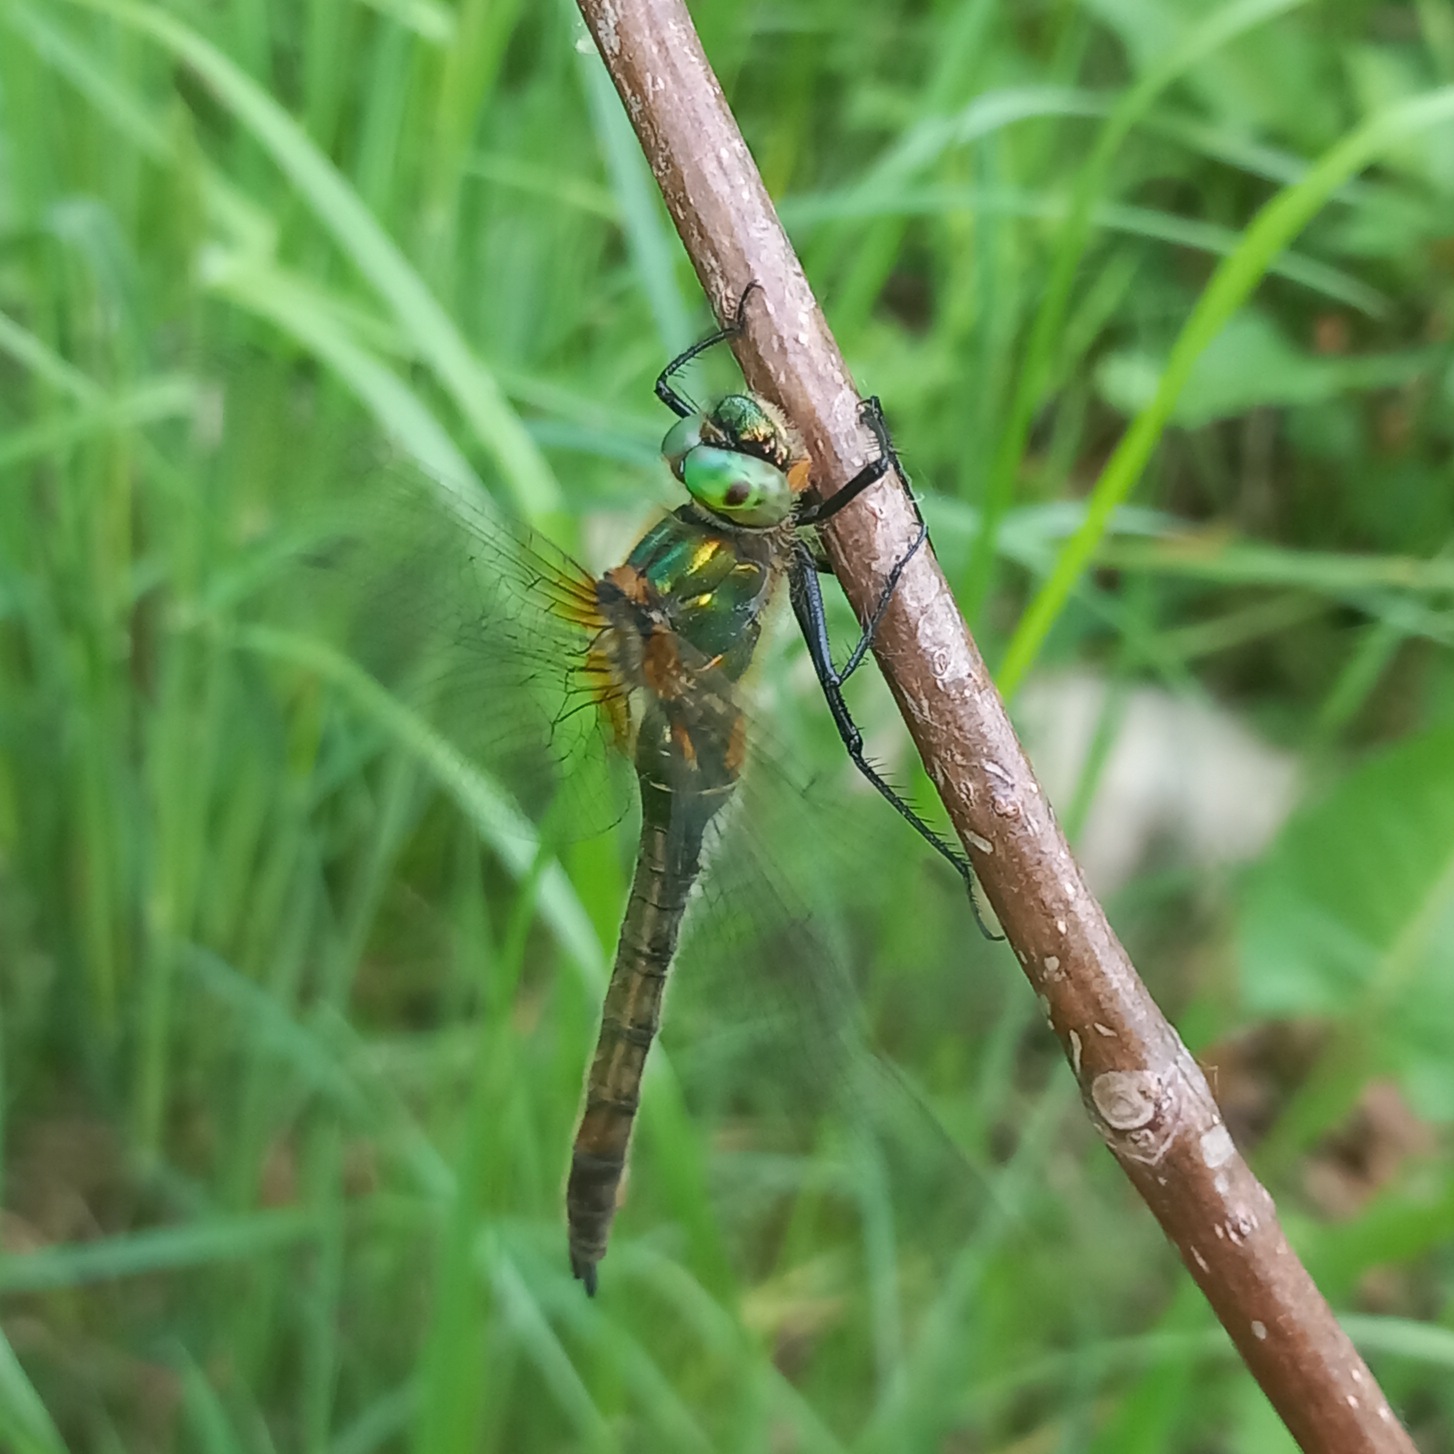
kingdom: Animalia
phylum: Arthropoda
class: Insecta
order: Odonata
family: Corduliidae
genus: Cordulia
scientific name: Cordulia aenea
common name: Grøn smaragdlibel
